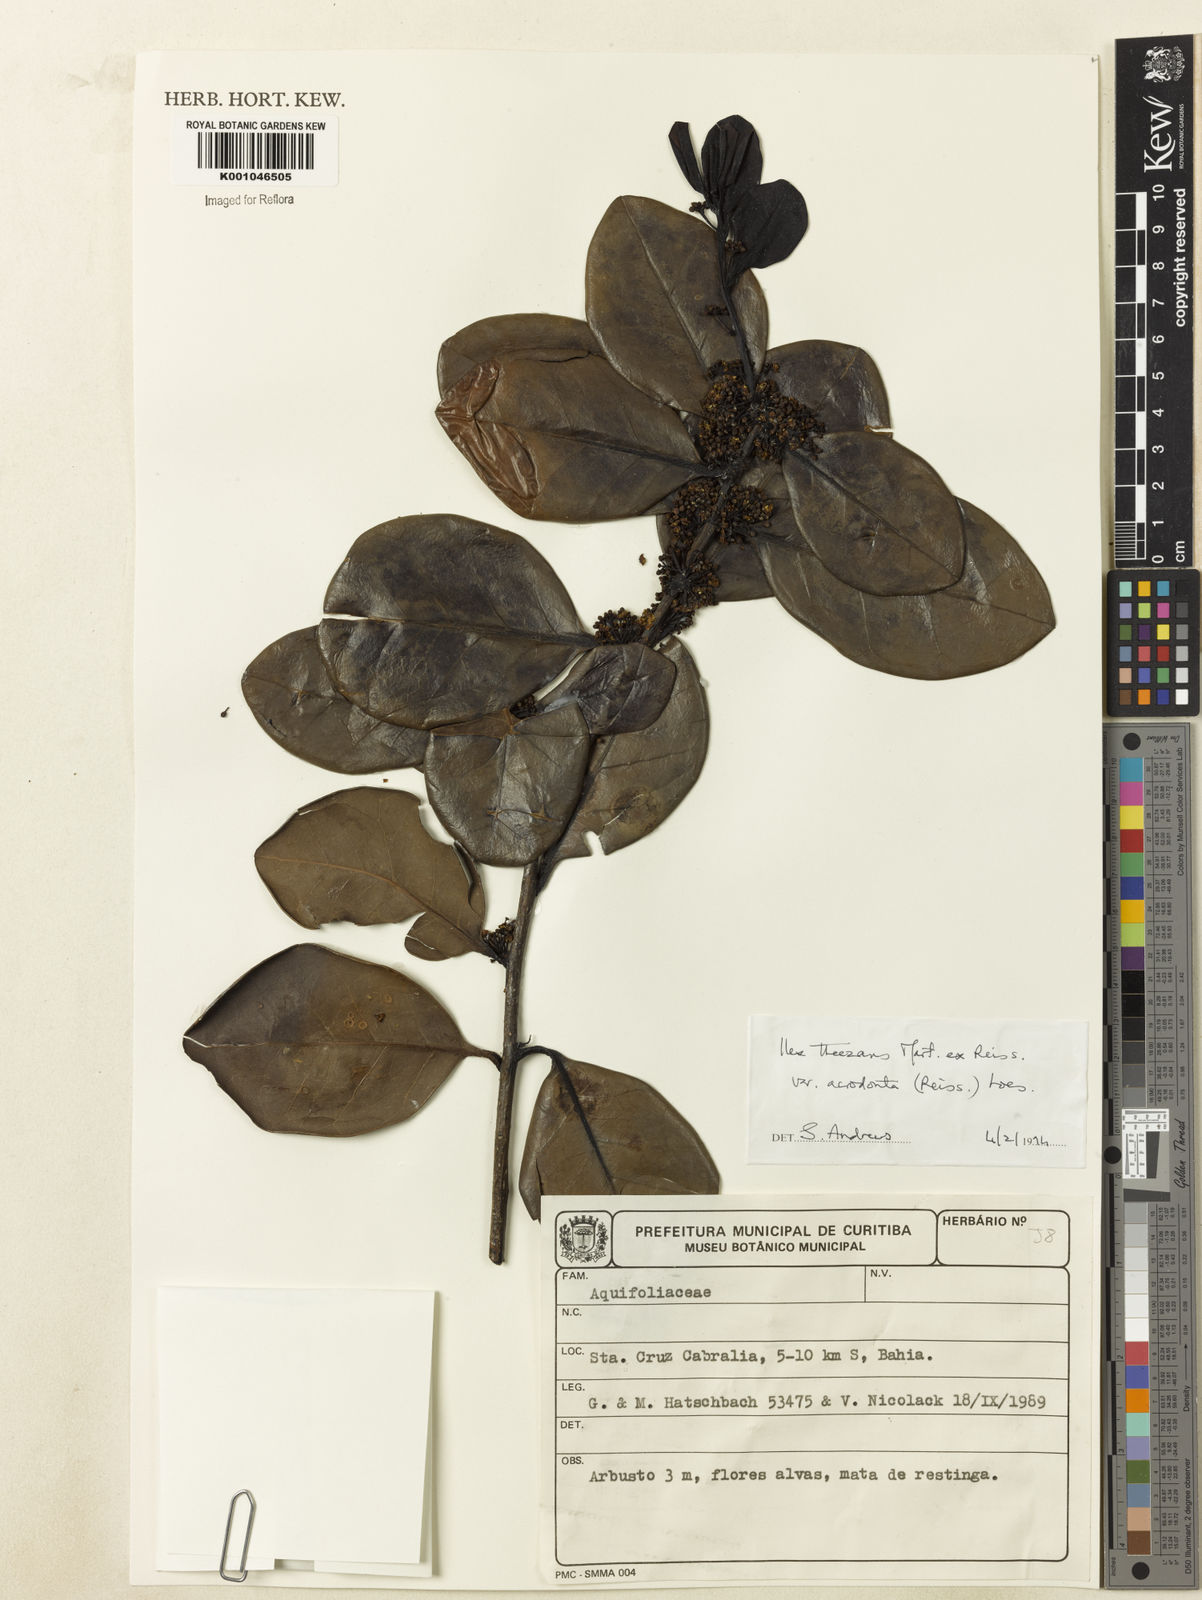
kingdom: Plantae
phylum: Tracheophyta
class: Magnoliopsida
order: Aquifoliales
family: Aquifoliaceae
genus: Ilex
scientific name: Ilex theezans
